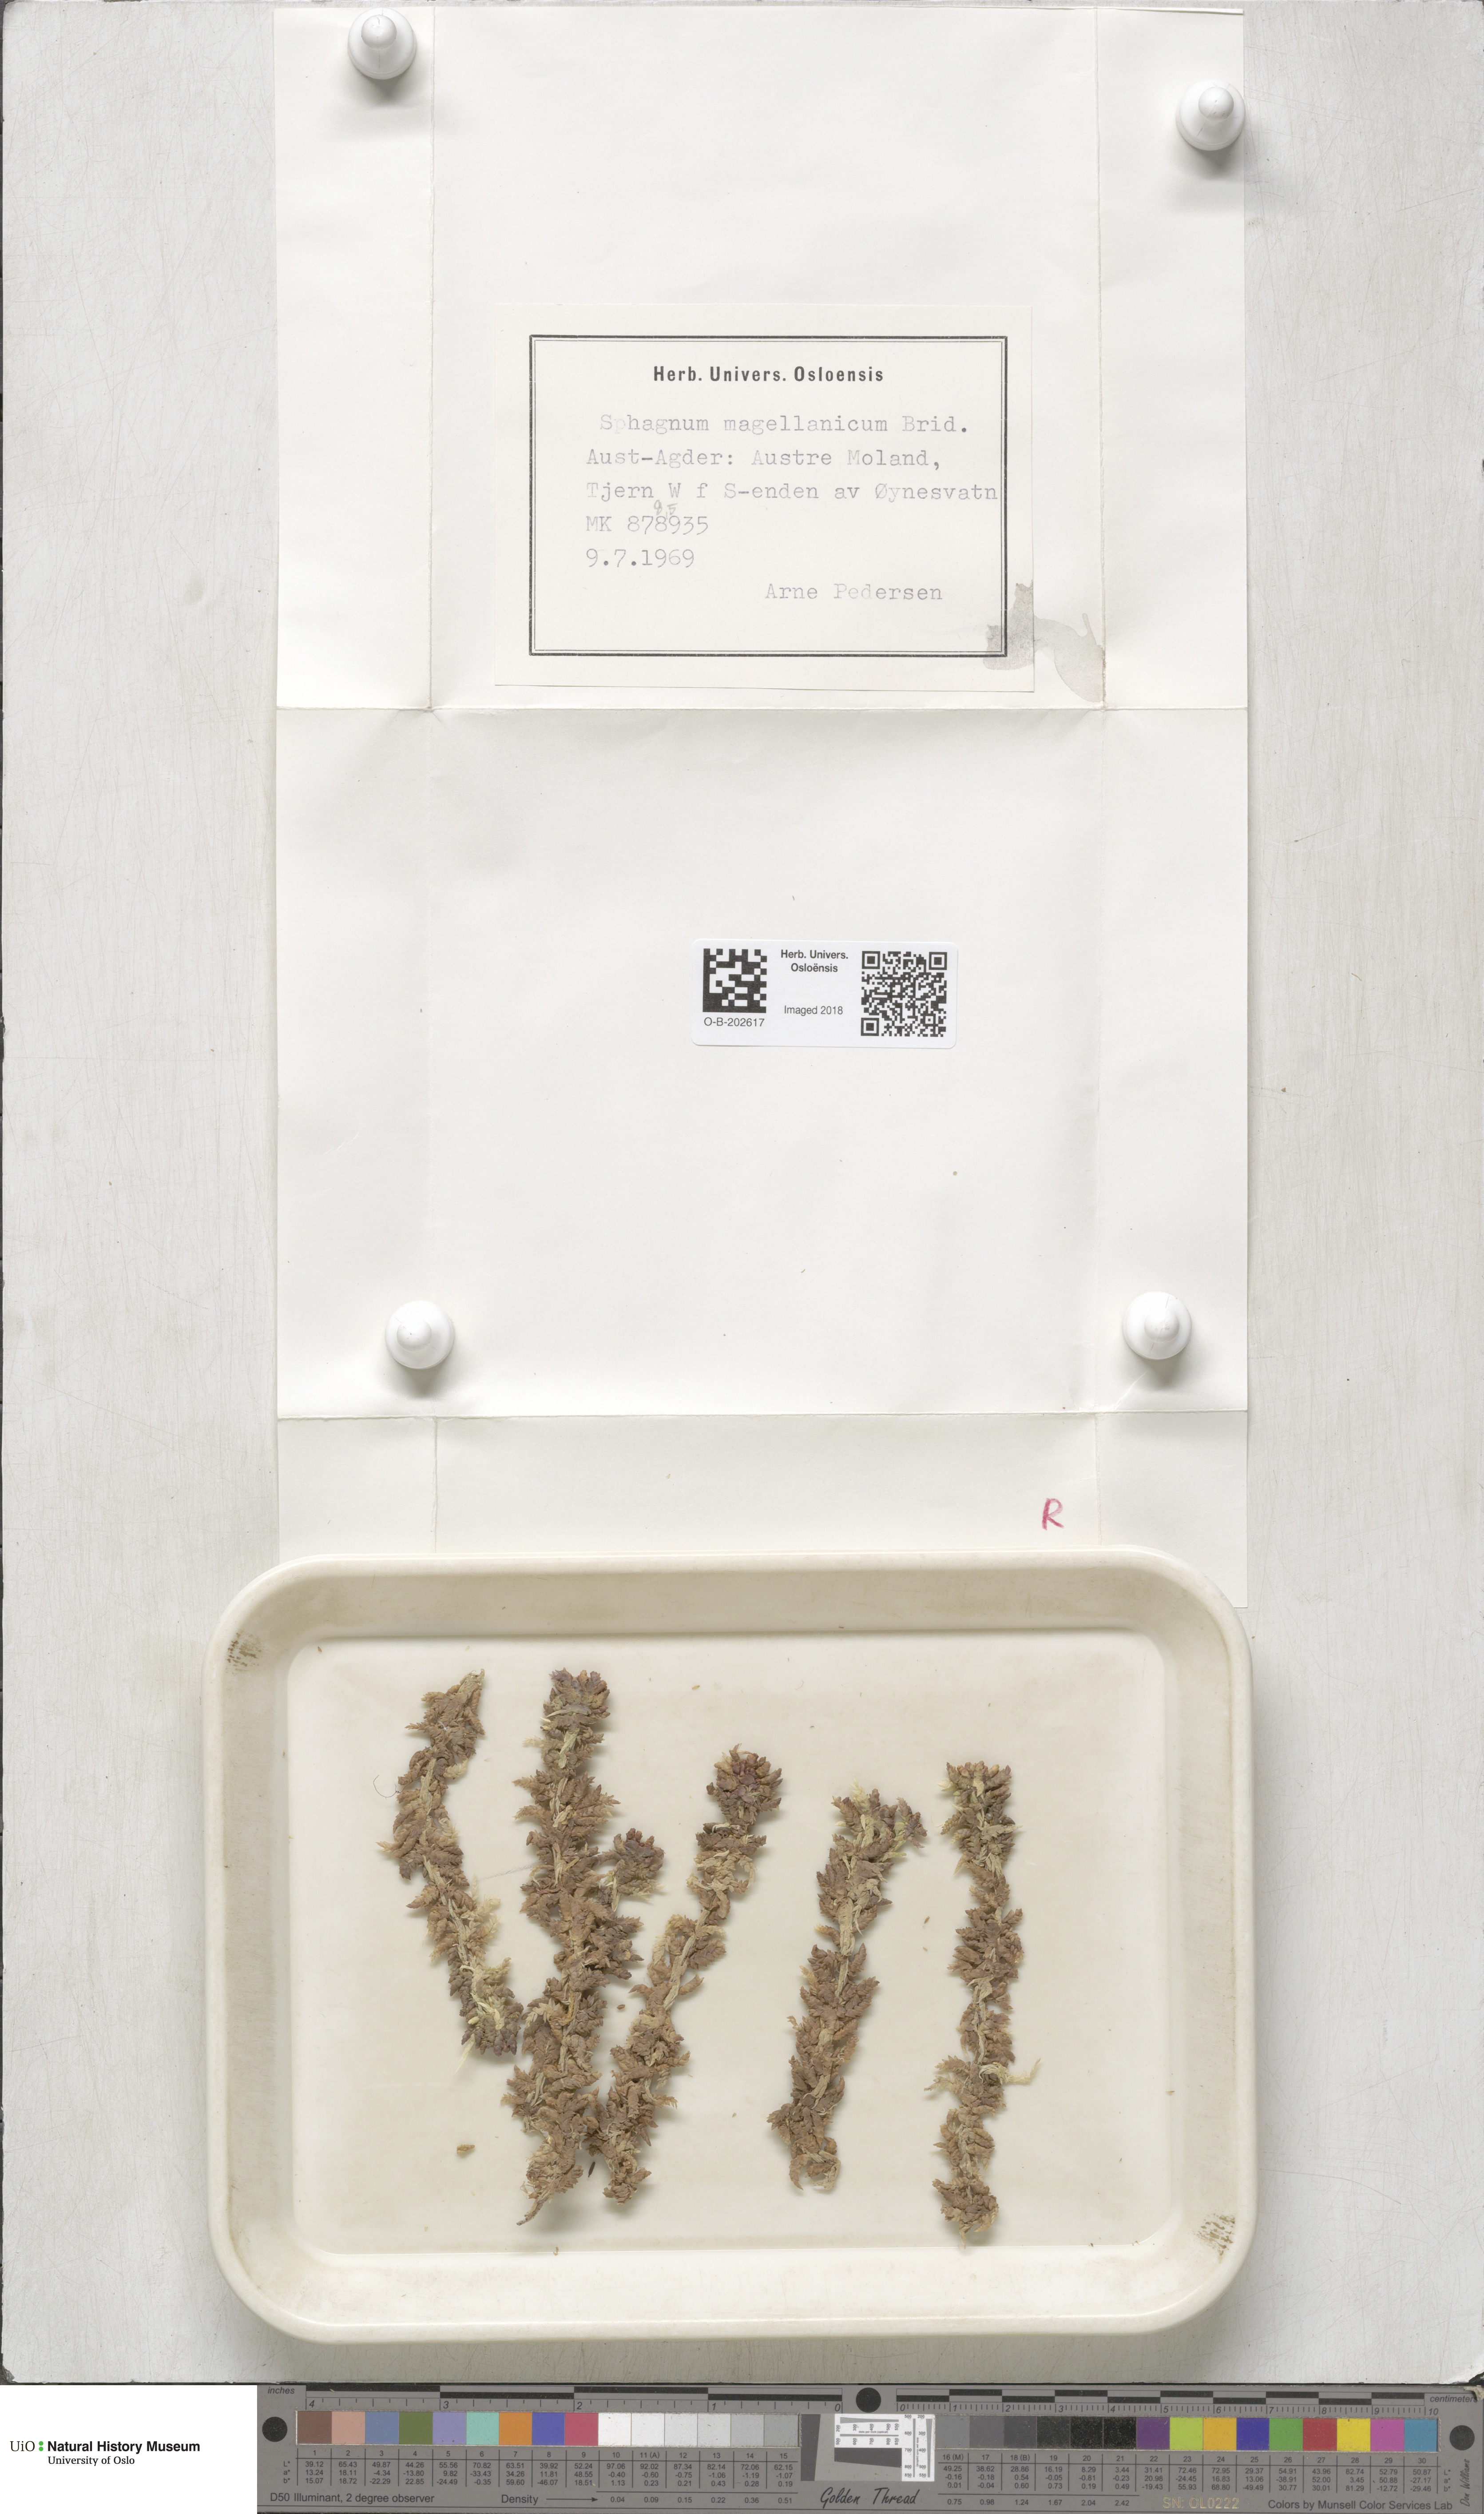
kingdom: Plantae
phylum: Bryophyta
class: Sphagnopsida
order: Sphagnales
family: Sphagnaceae
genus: Sphagnum
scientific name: Sphagnum magellanicum
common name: Magellan's peat moss
